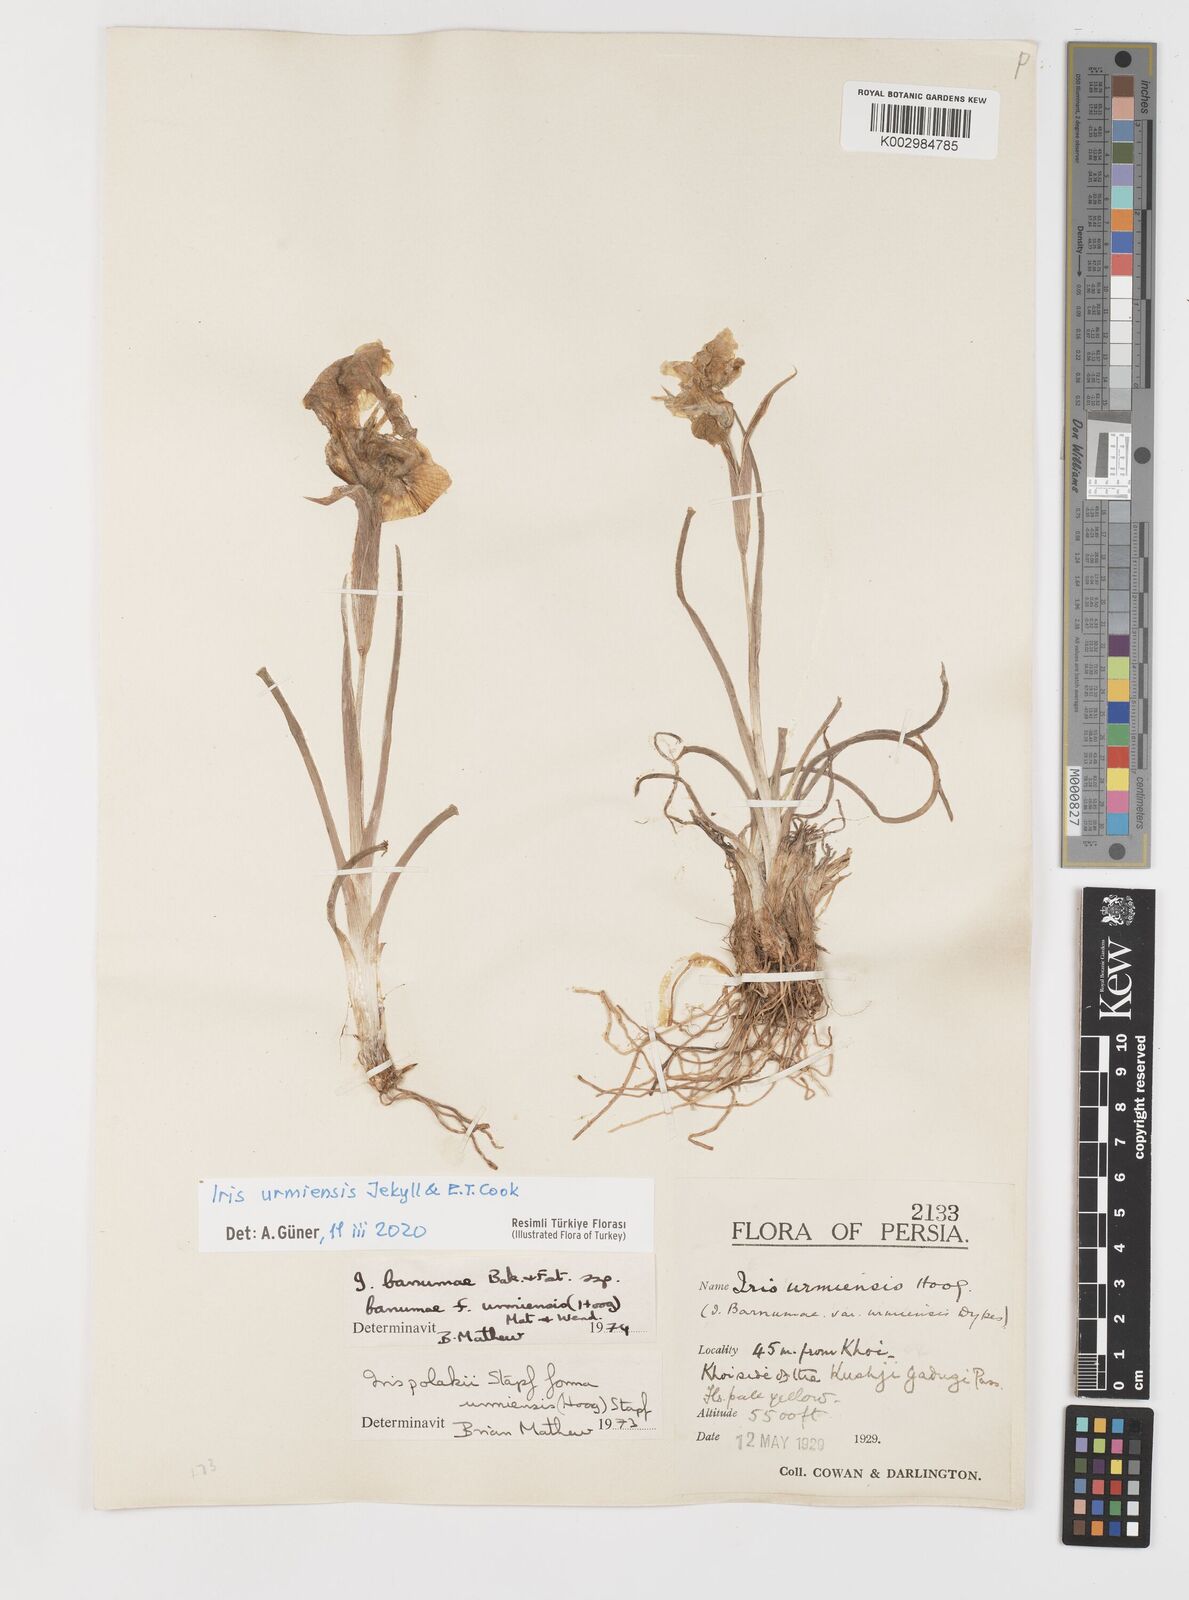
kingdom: Plantae
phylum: Tracheophyta
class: Liliopsida
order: Asparagales
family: Iridaceae
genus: Iris
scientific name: Iris urmiensis
